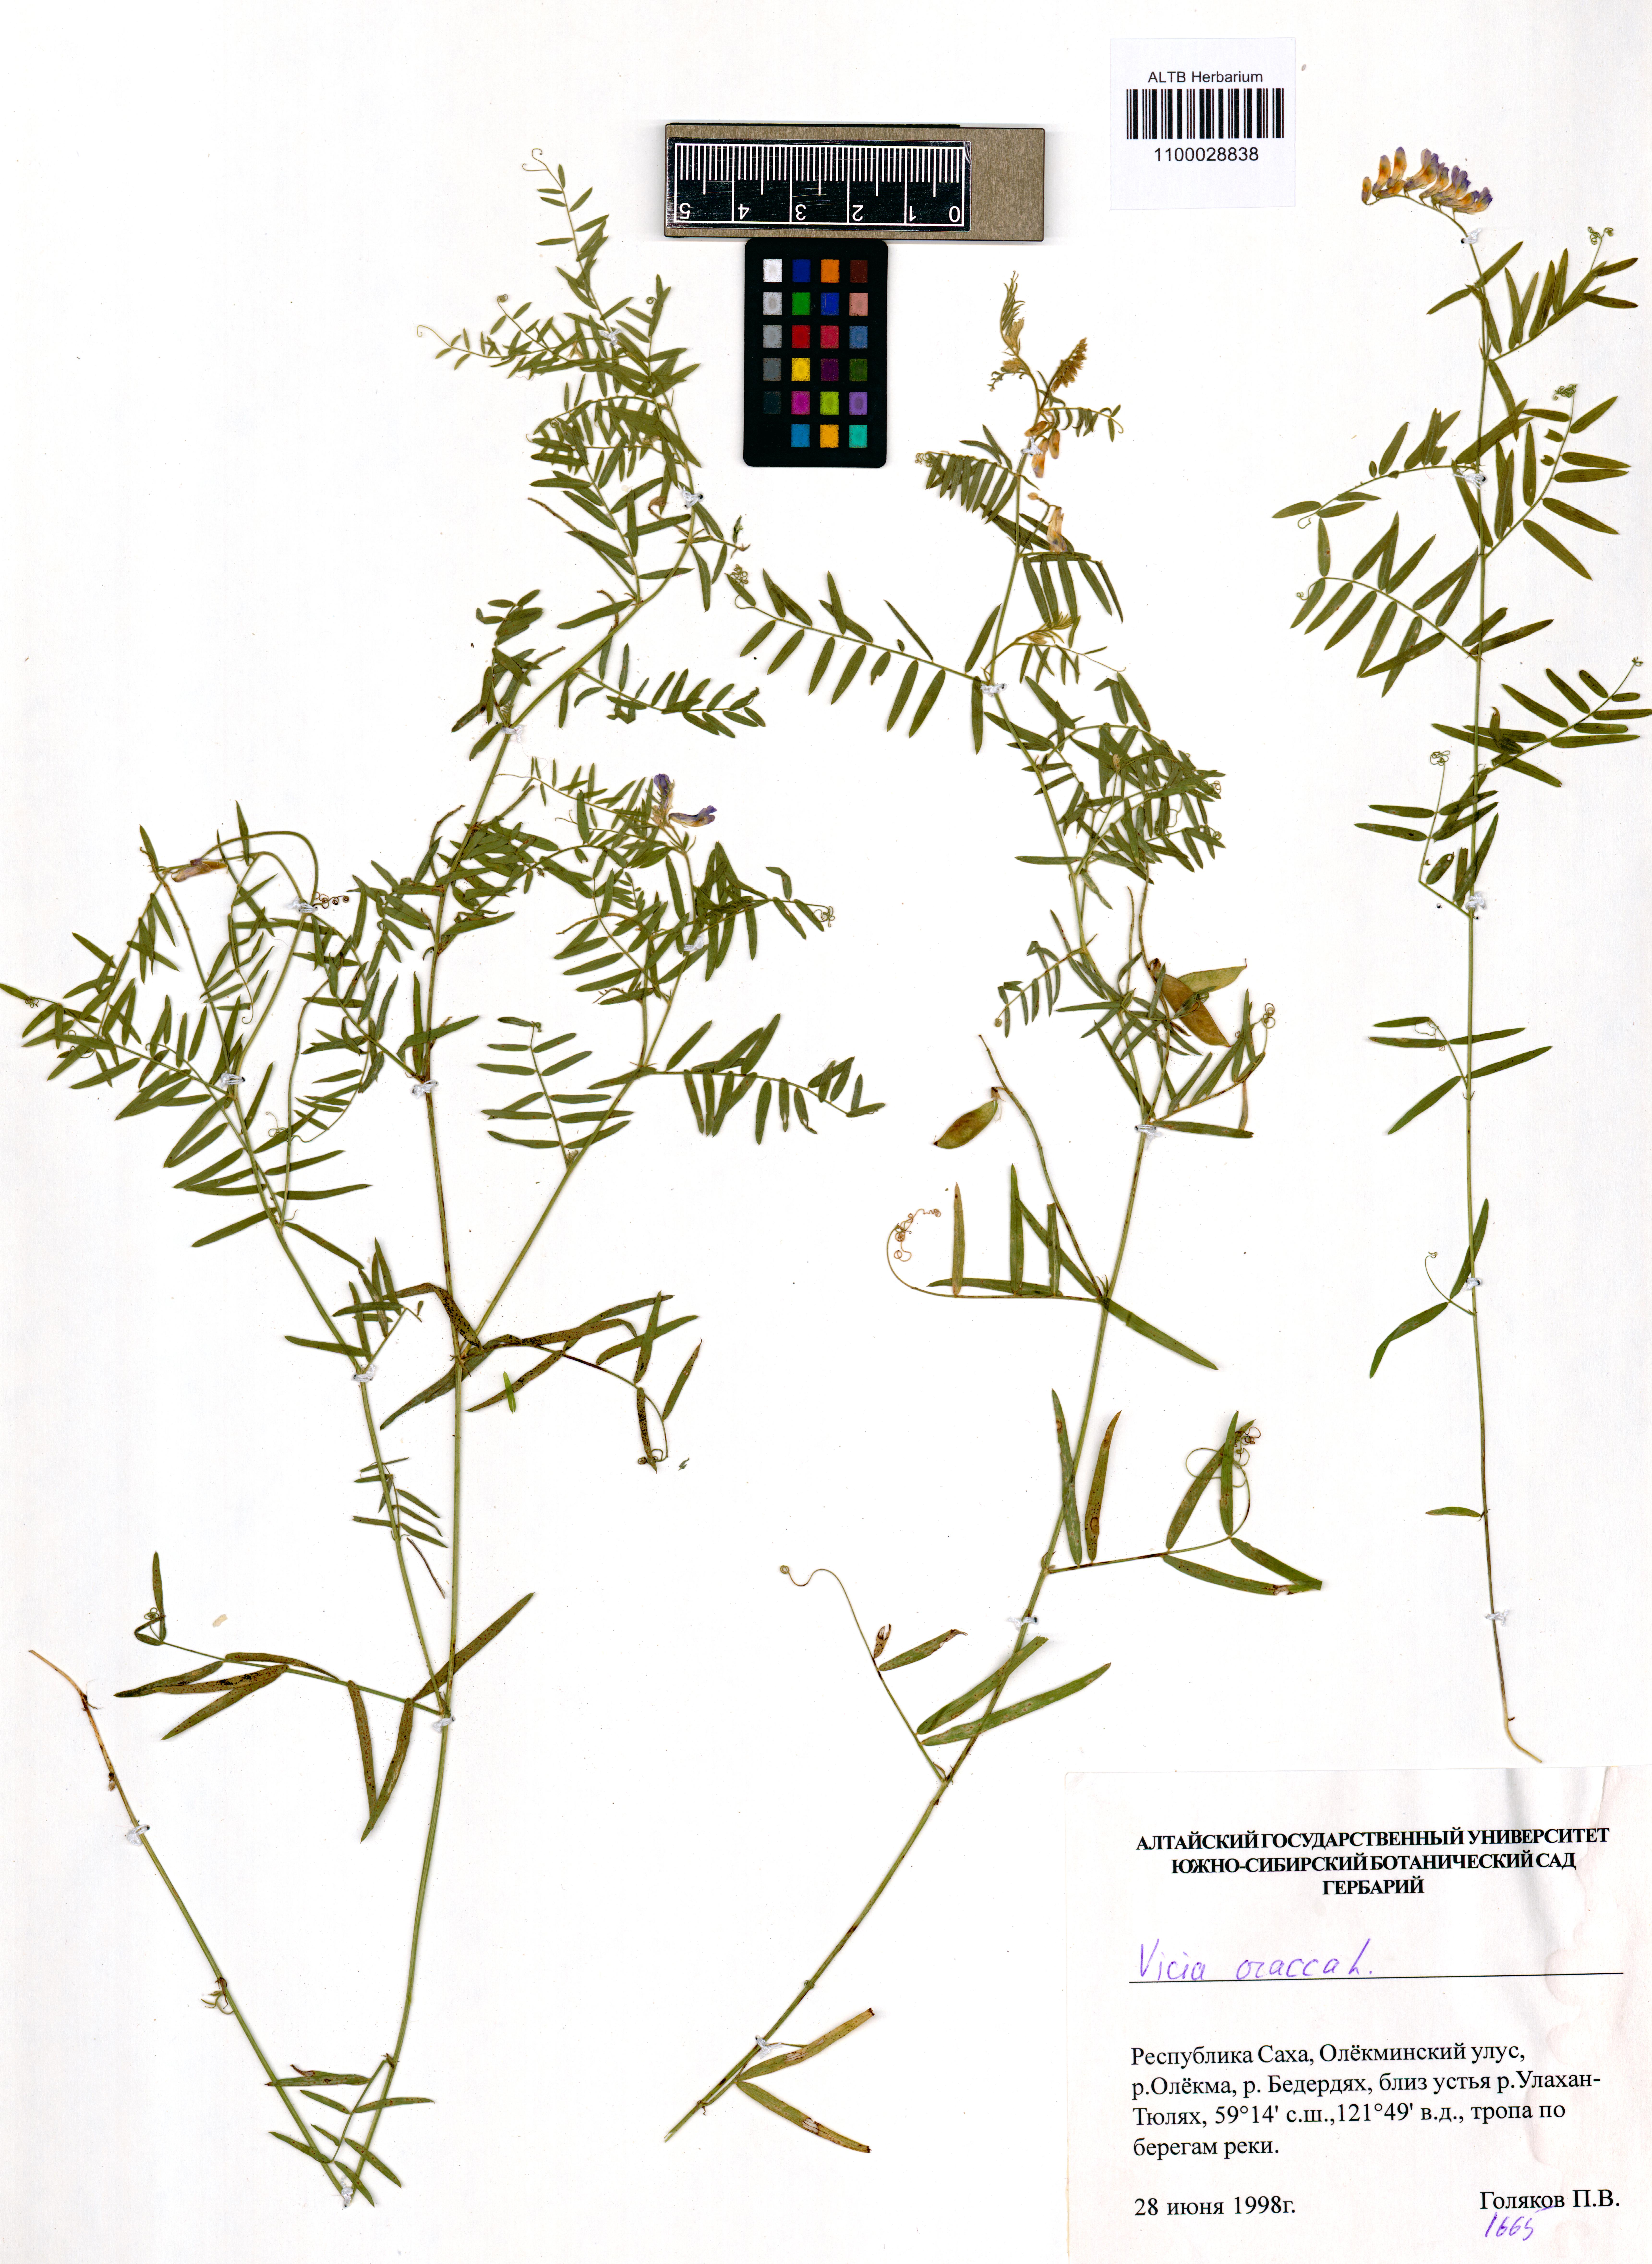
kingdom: Plantae
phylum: Tracheophyta
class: Magnoliopsida
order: Fabales
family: Fabaceae
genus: Vicia
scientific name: Vicia cracca
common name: Bird vetch
